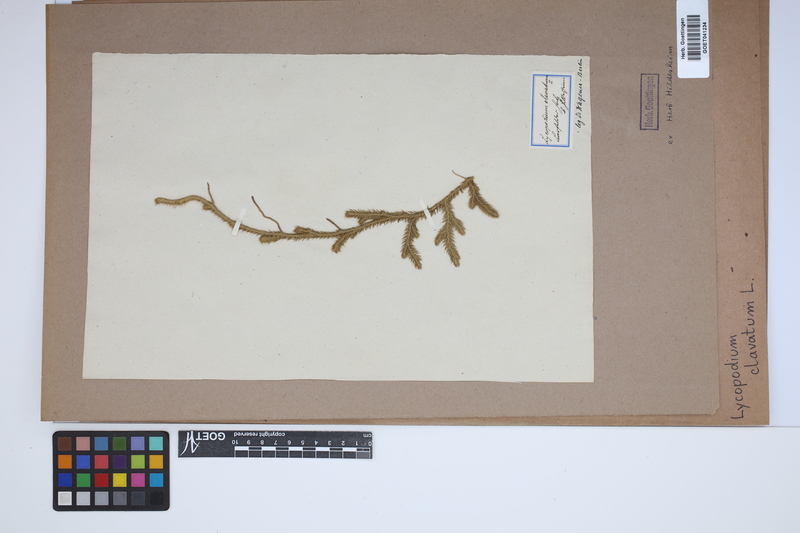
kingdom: Plantae
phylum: Tracheophyta
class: Lycopodiopsida
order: Lycopodiales
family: Lycopodiaceae
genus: Lycopodium
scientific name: Lycopodium clavatum
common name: Stag's-horn clubmoss
